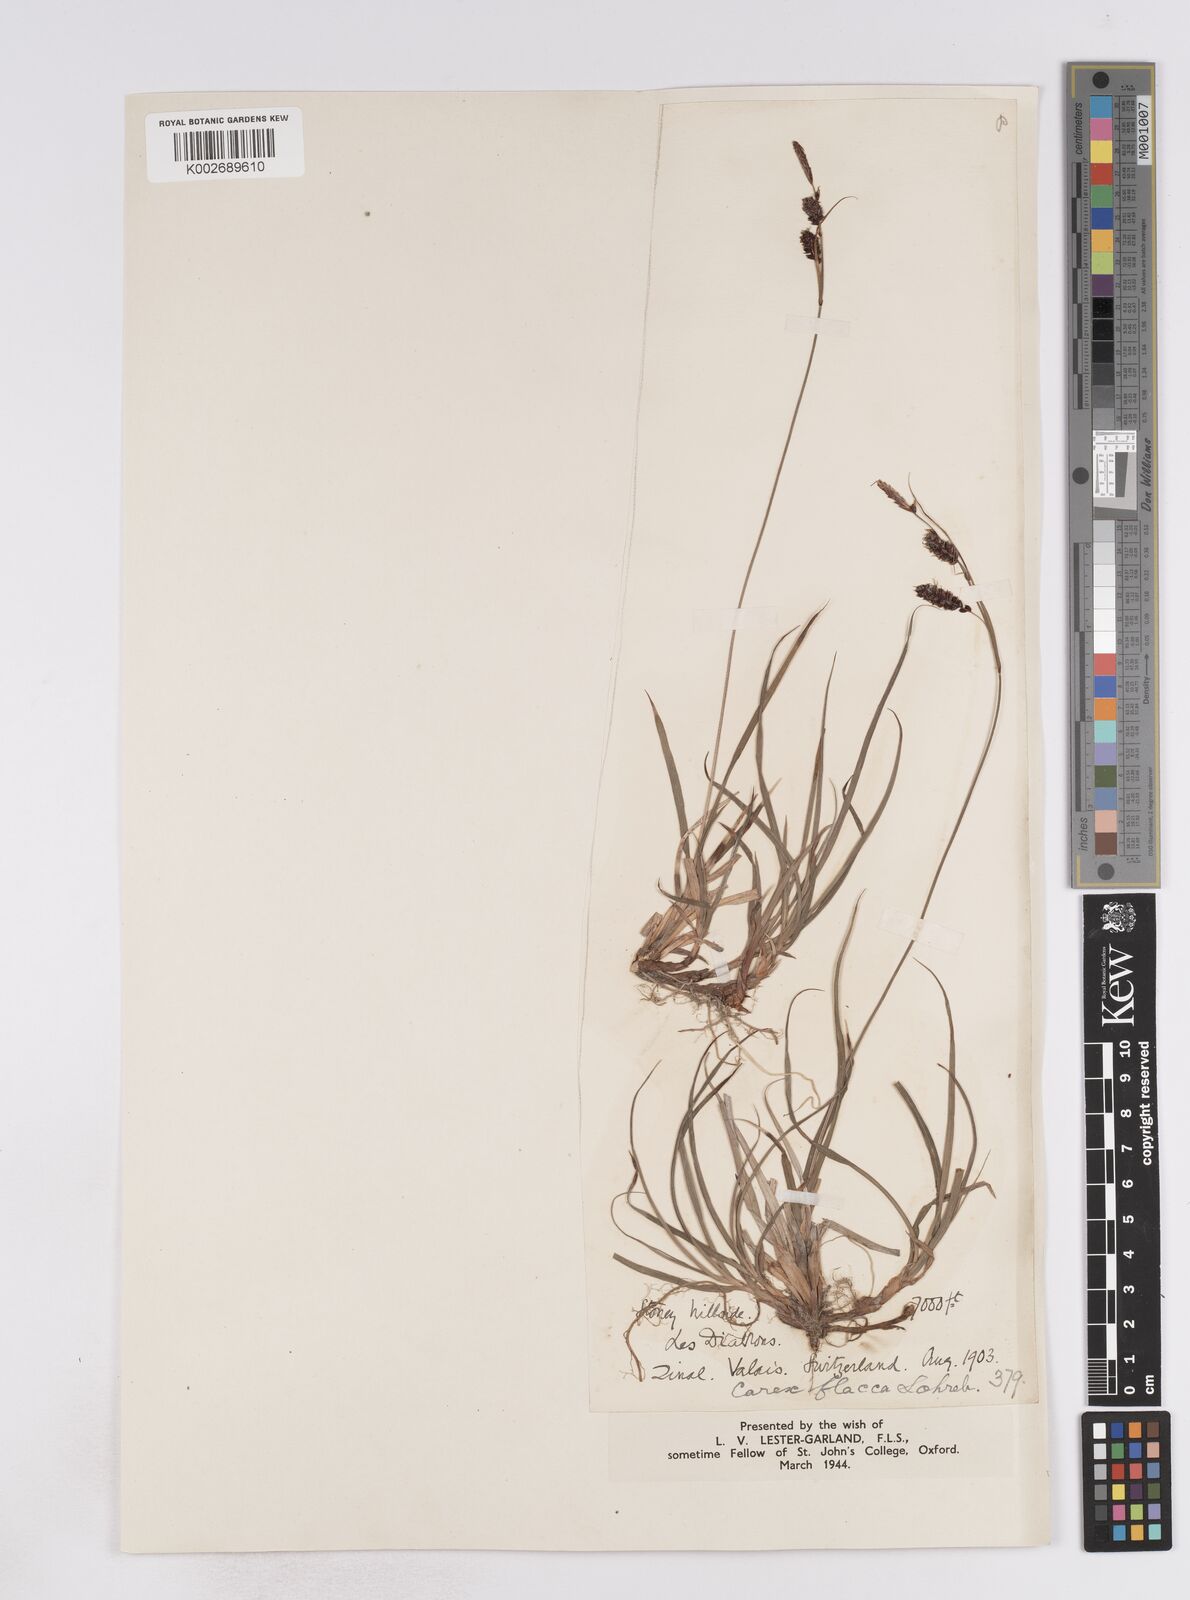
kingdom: Plantae
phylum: Tracheophyta
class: Liliopsida
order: Poales
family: Cyperaceae
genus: Carex
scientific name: Carex flacca
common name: Glaucous sedge
